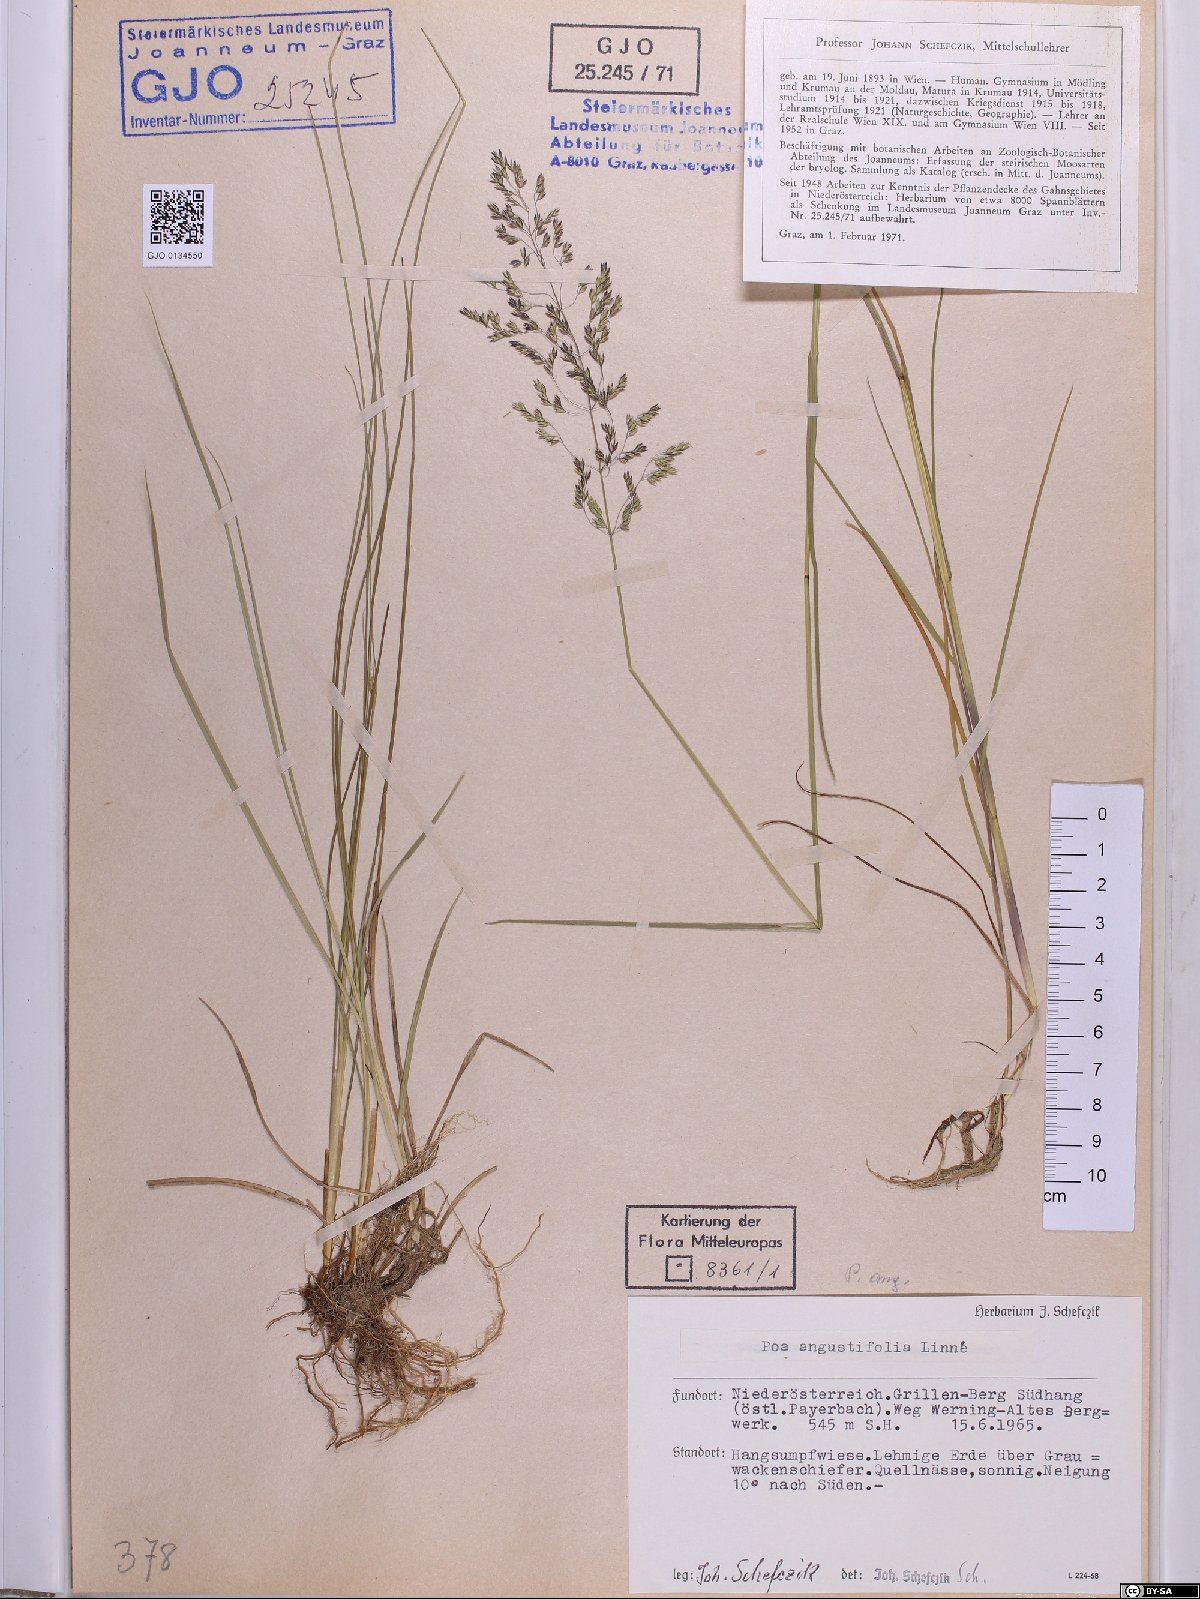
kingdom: Plantae
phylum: Tracheophyta
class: Liliopsida
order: Poales
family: Poaceae
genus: Poa
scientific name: Poa angustifolia
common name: Narrow-leaved meadow-grass
